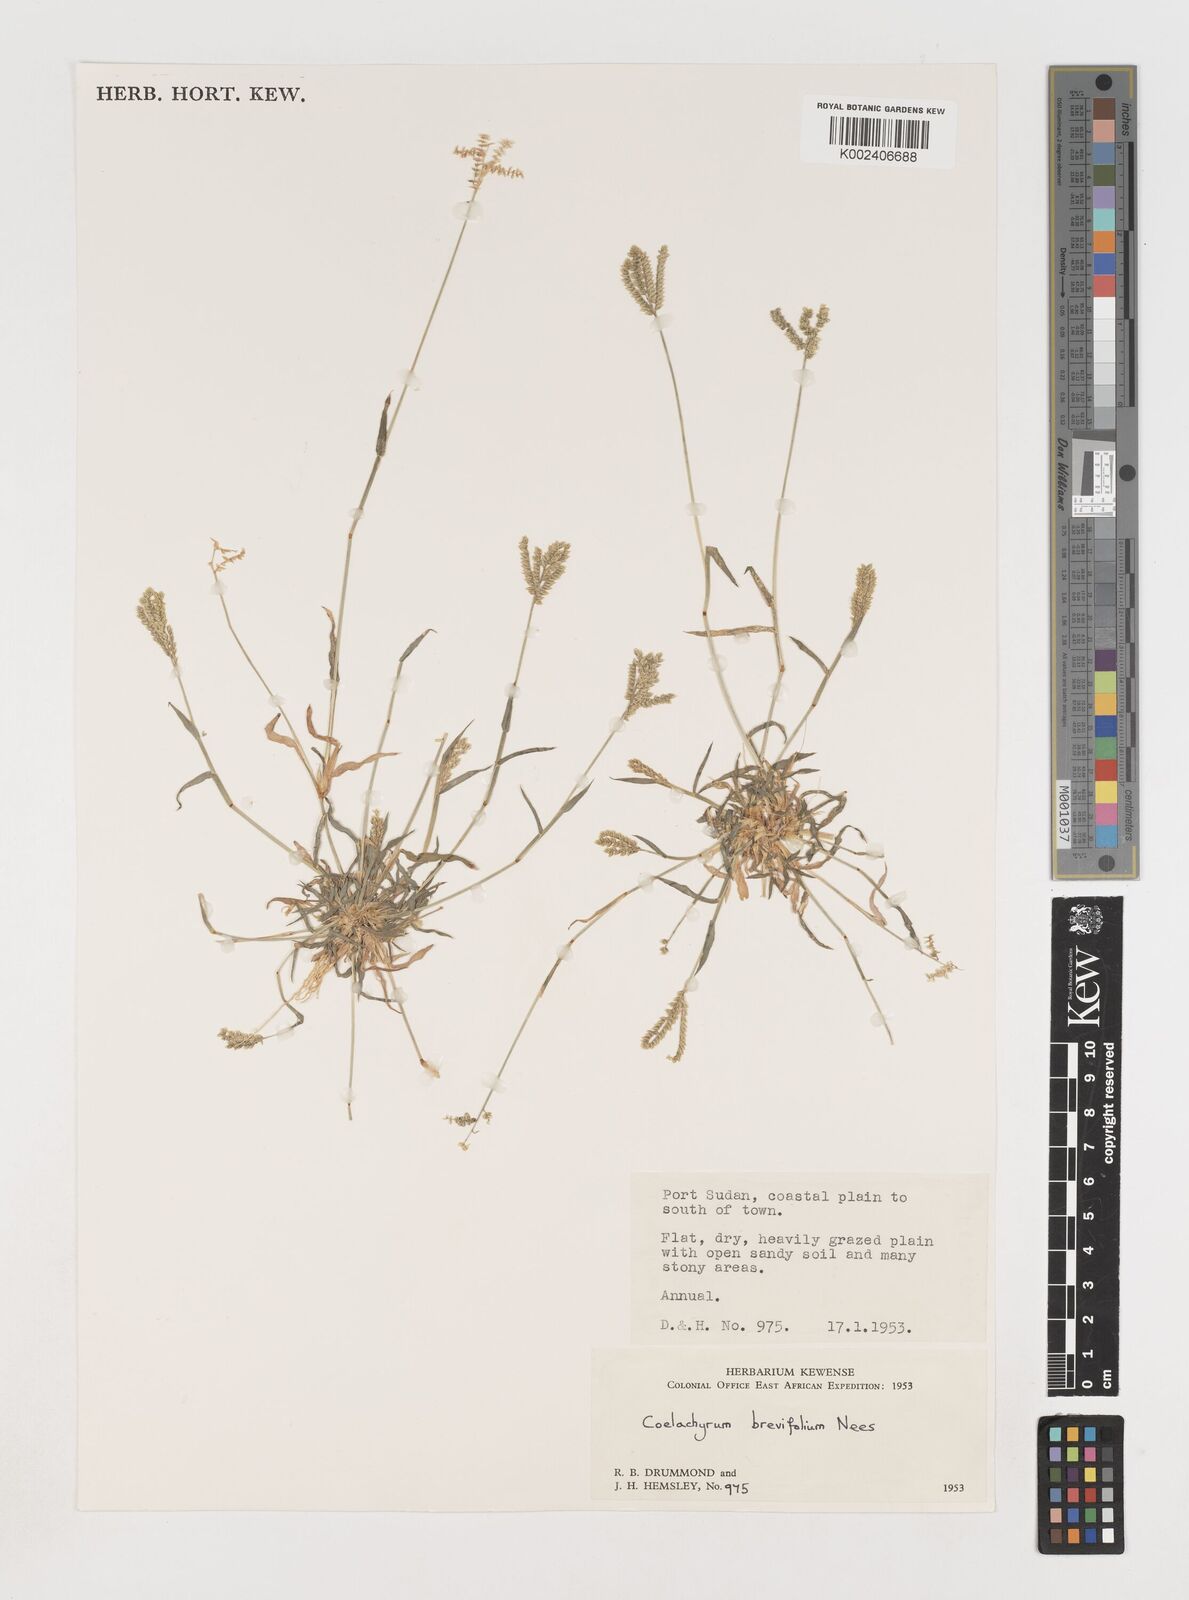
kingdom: Plantae
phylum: Tracheophyta
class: Liliopsida
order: Poales
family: Poaceae
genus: Coelachyrum
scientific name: Coelachyrum brevifolium
